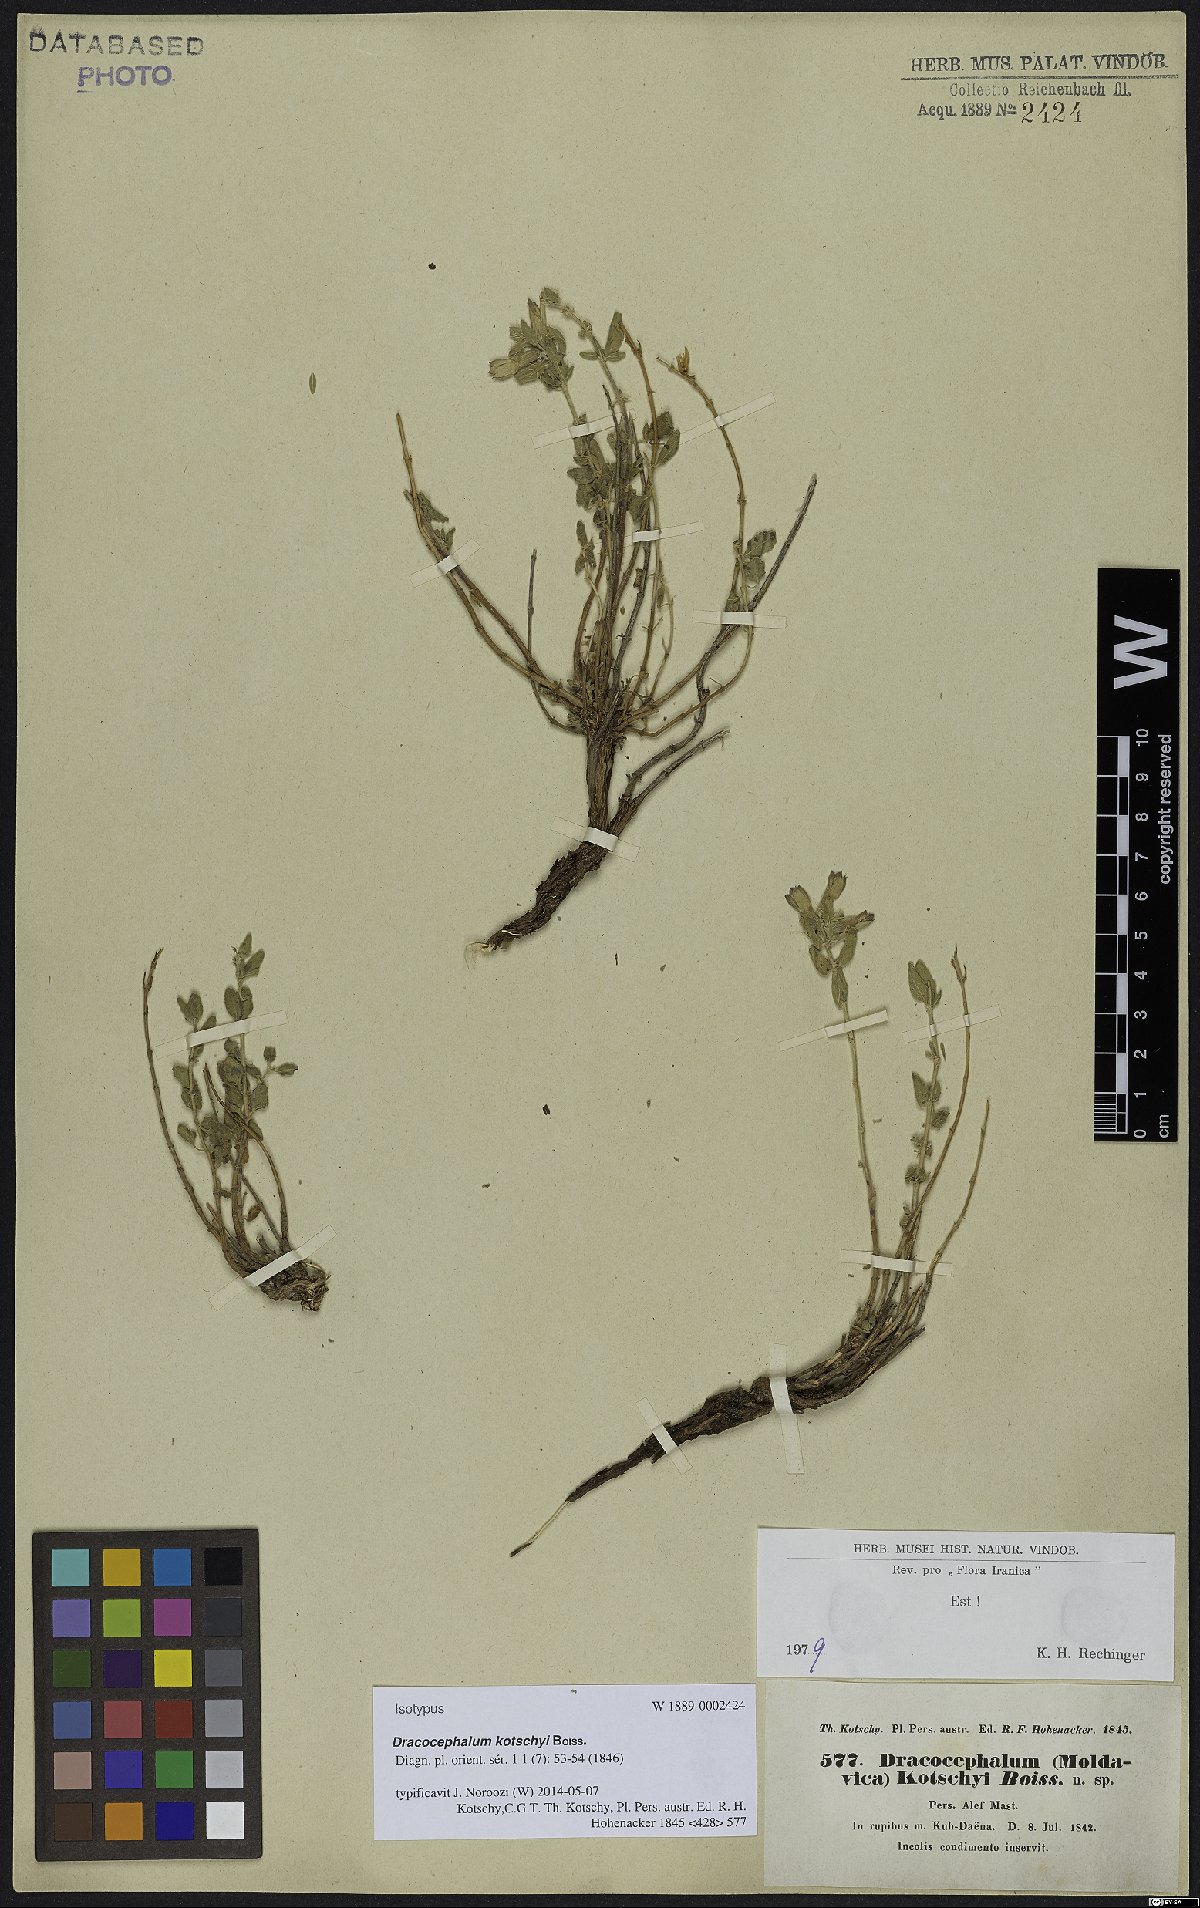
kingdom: Plantae
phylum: Tracheophyta
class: Magnoliopsida
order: Lamiales
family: Lamiaceae
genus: Dracocephalum
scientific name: Dracocephalum kotschyi
